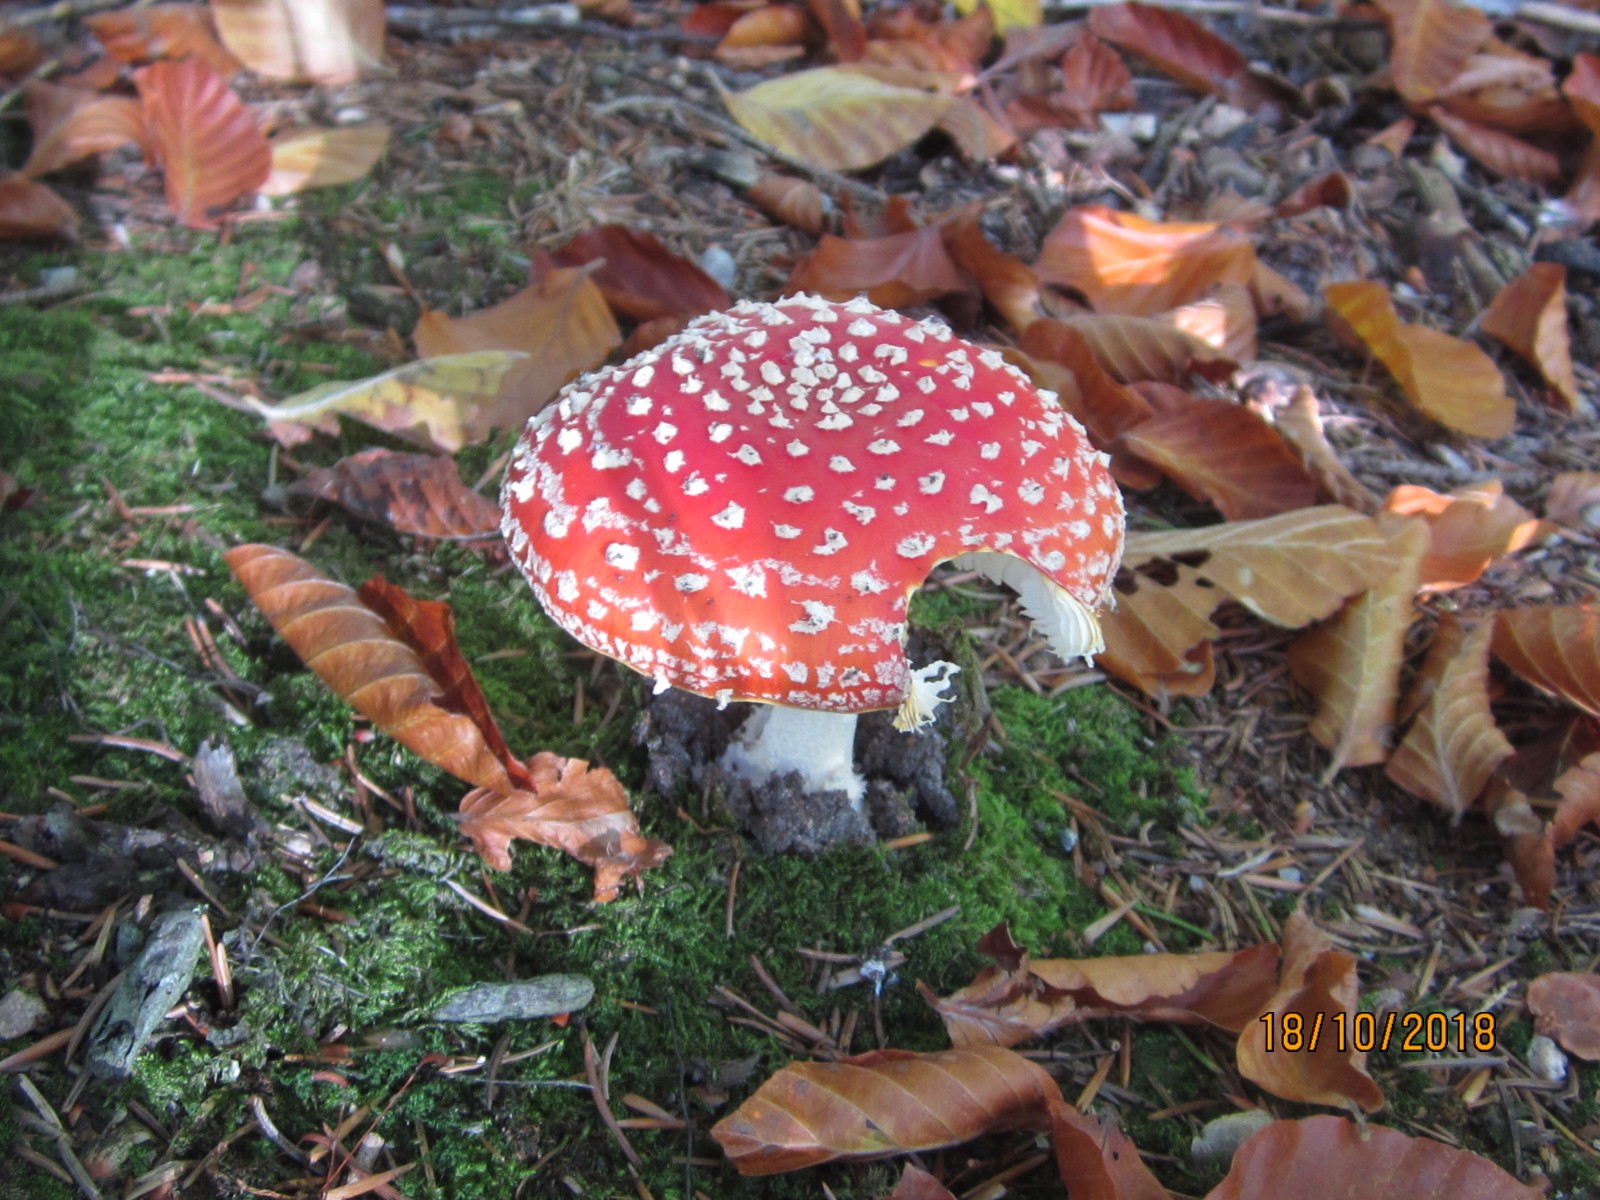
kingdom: Fungi
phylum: Basidiomycota
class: Agaricomycetes
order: Agaricales
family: Amanitaceae
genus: Amanita
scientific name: Amanita muscaria
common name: rød fluesvamp
